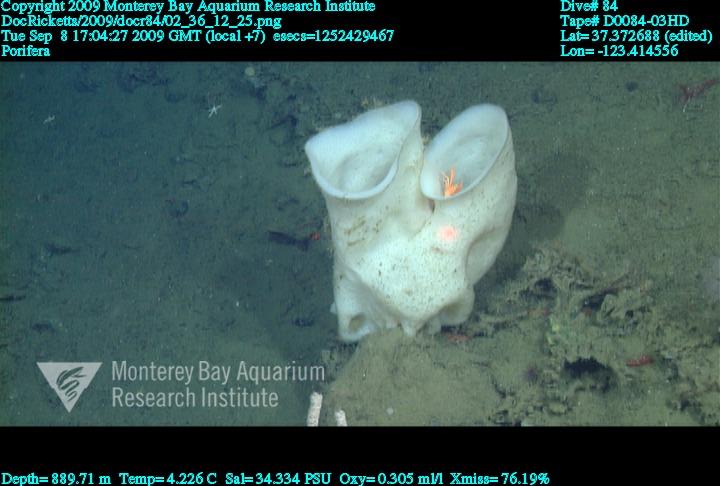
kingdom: Animalia
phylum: Porifera
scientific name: Porifera
